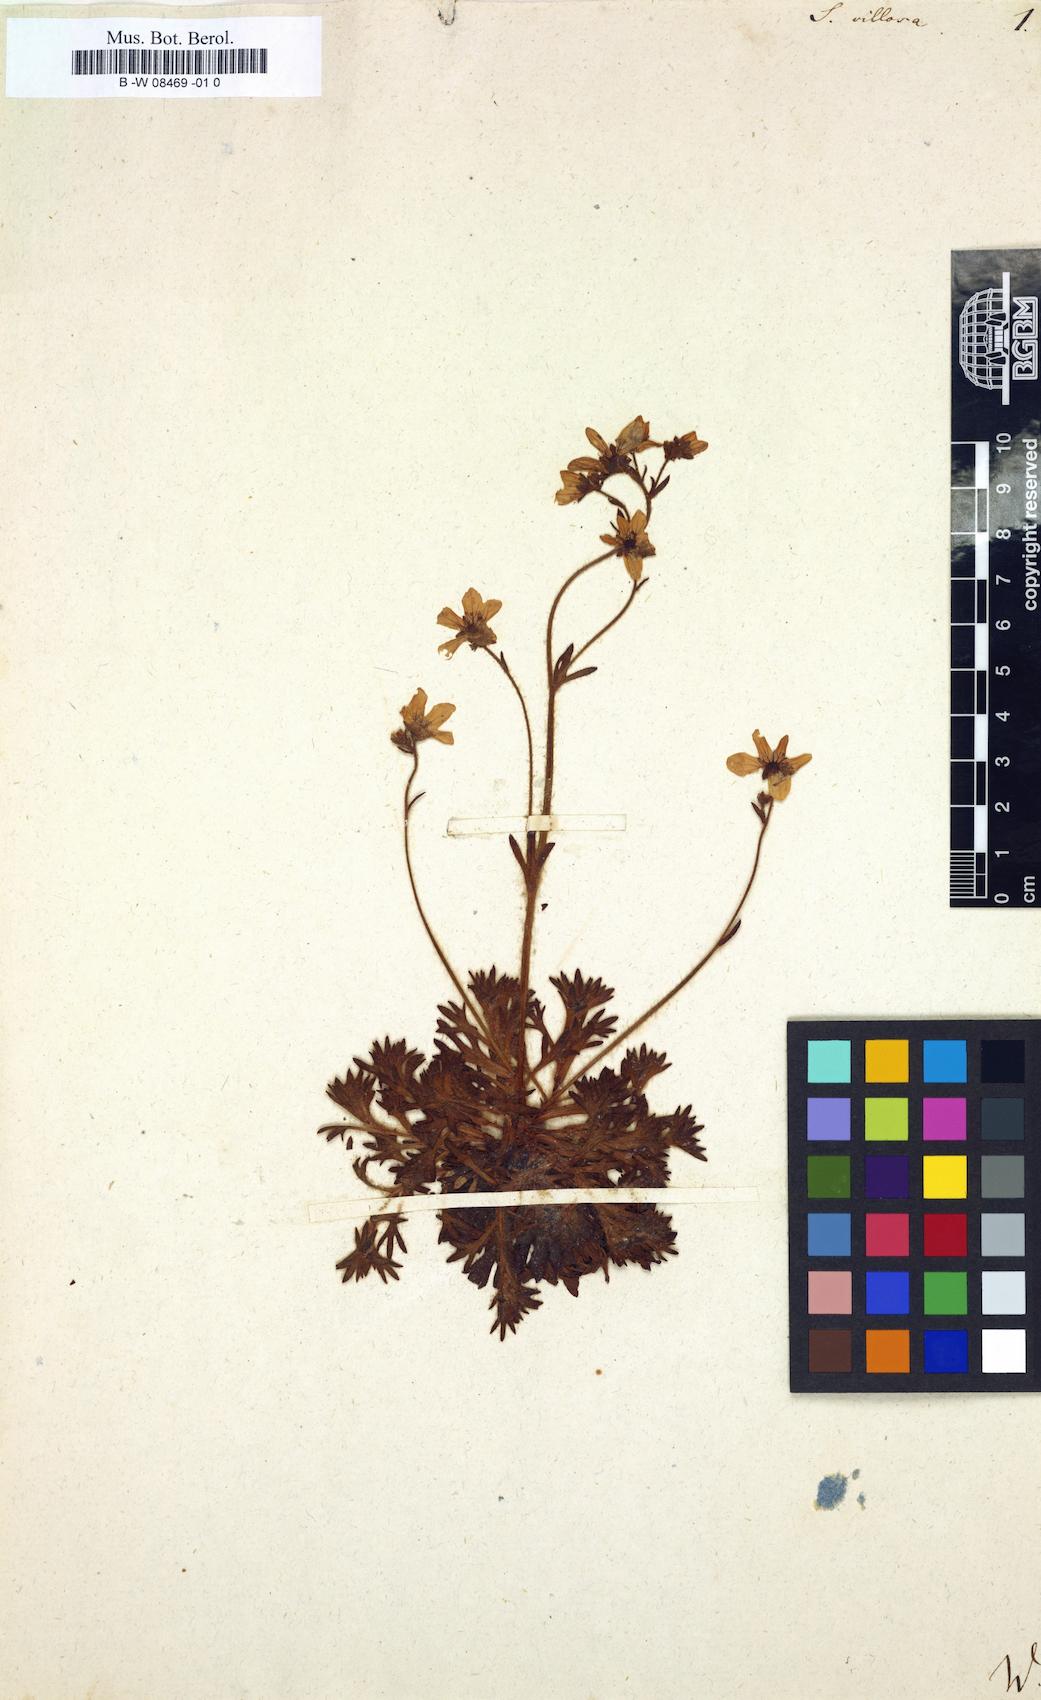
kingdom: Plantae
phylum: Tracheophyta
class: Magnoliopsida
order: Saxifragales
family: Saxifragaceae
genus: Saxifraga
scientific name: Saxifraga hypnoides
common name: Mossy saxifrage
